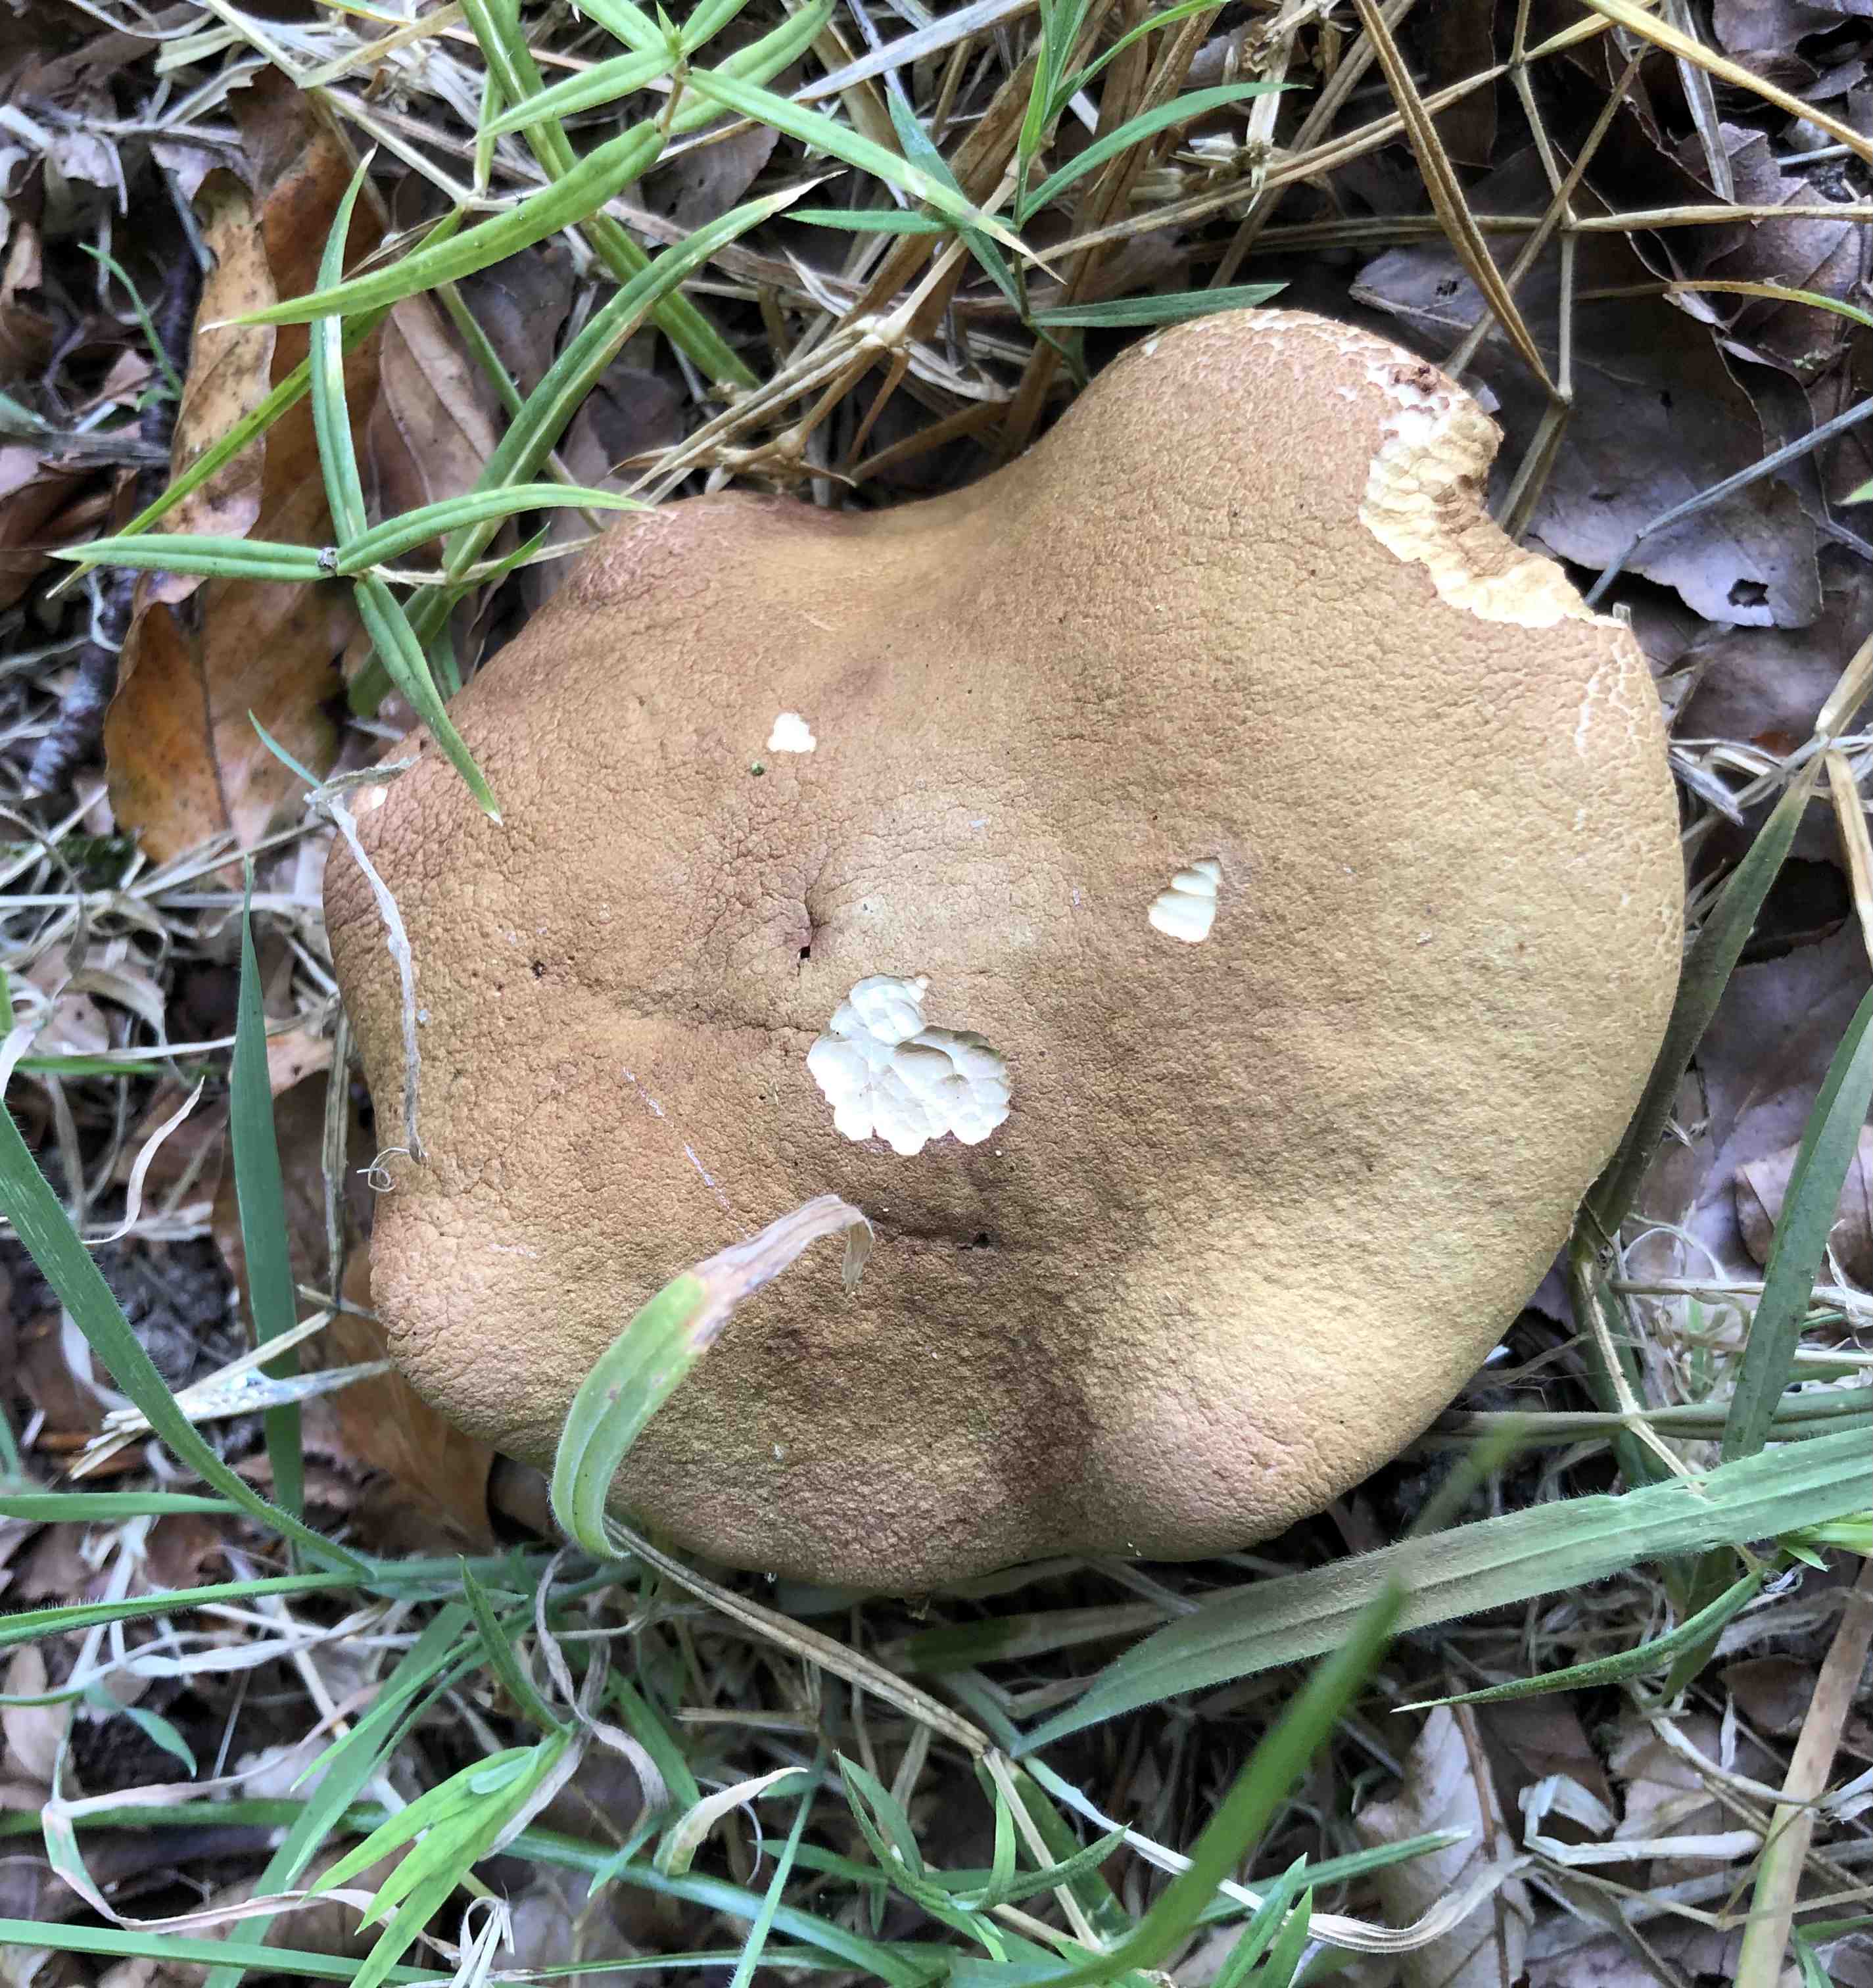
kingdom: Fungi
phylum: Ascomycota
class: Sordariomycetes
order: Hypocreales
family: Hypocreaceae
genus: Hypomyces
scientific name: Hypomyces
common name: snylteskorpe
